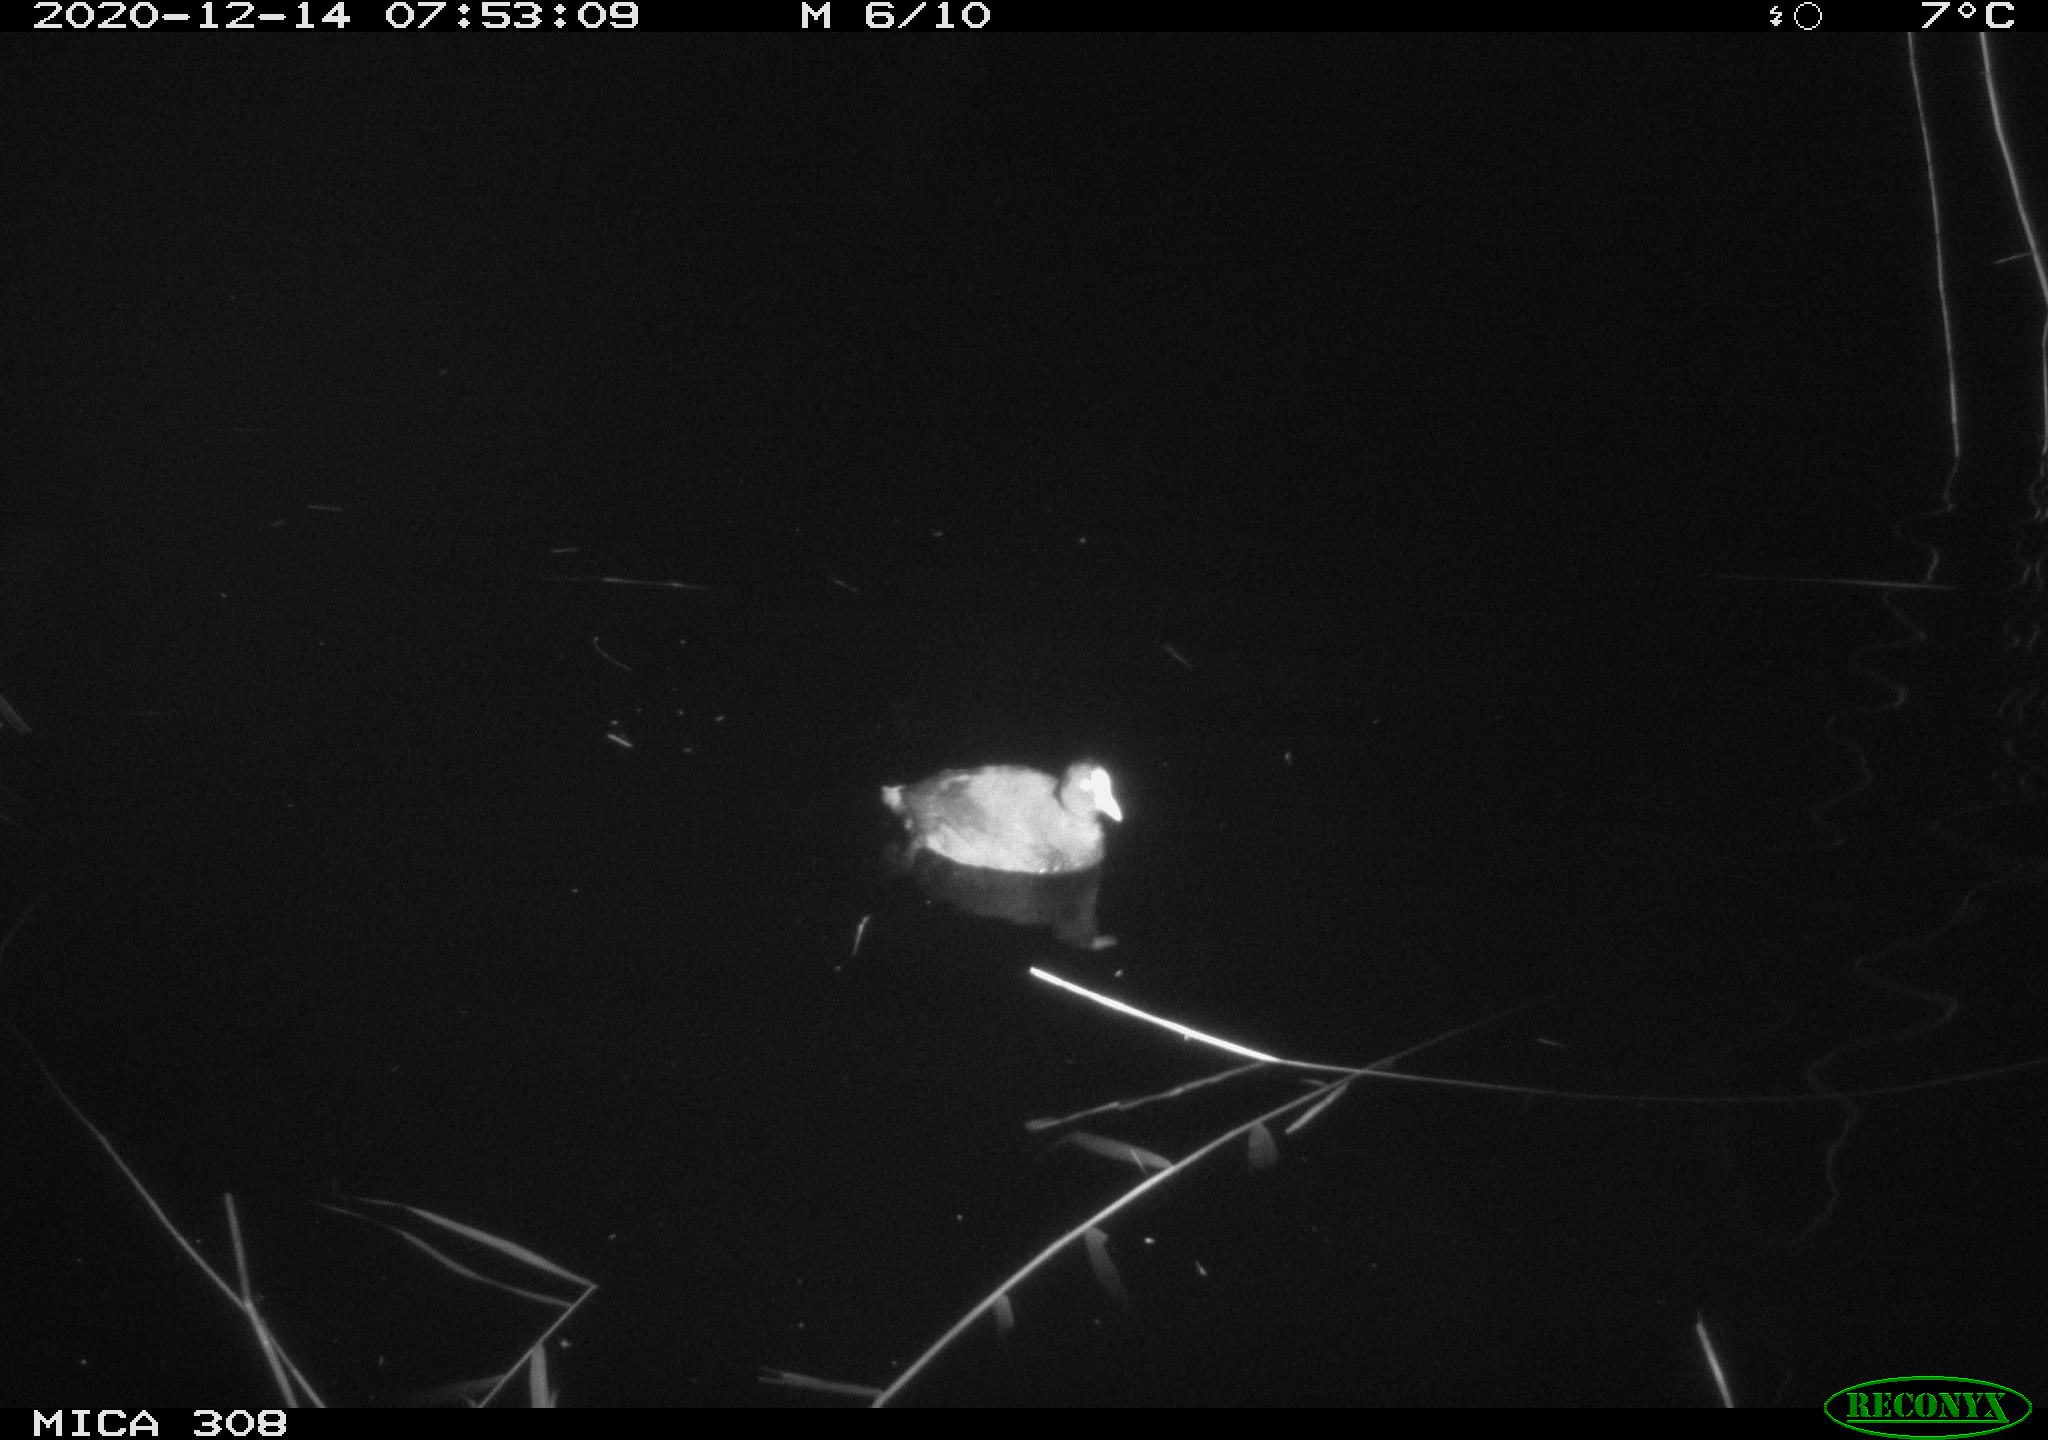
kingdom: Animalia
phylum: Chordata
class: Aves
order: Gruiformes
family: Rallidae
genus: Fulica
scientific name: Fulica atra
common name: Eurasian coot
